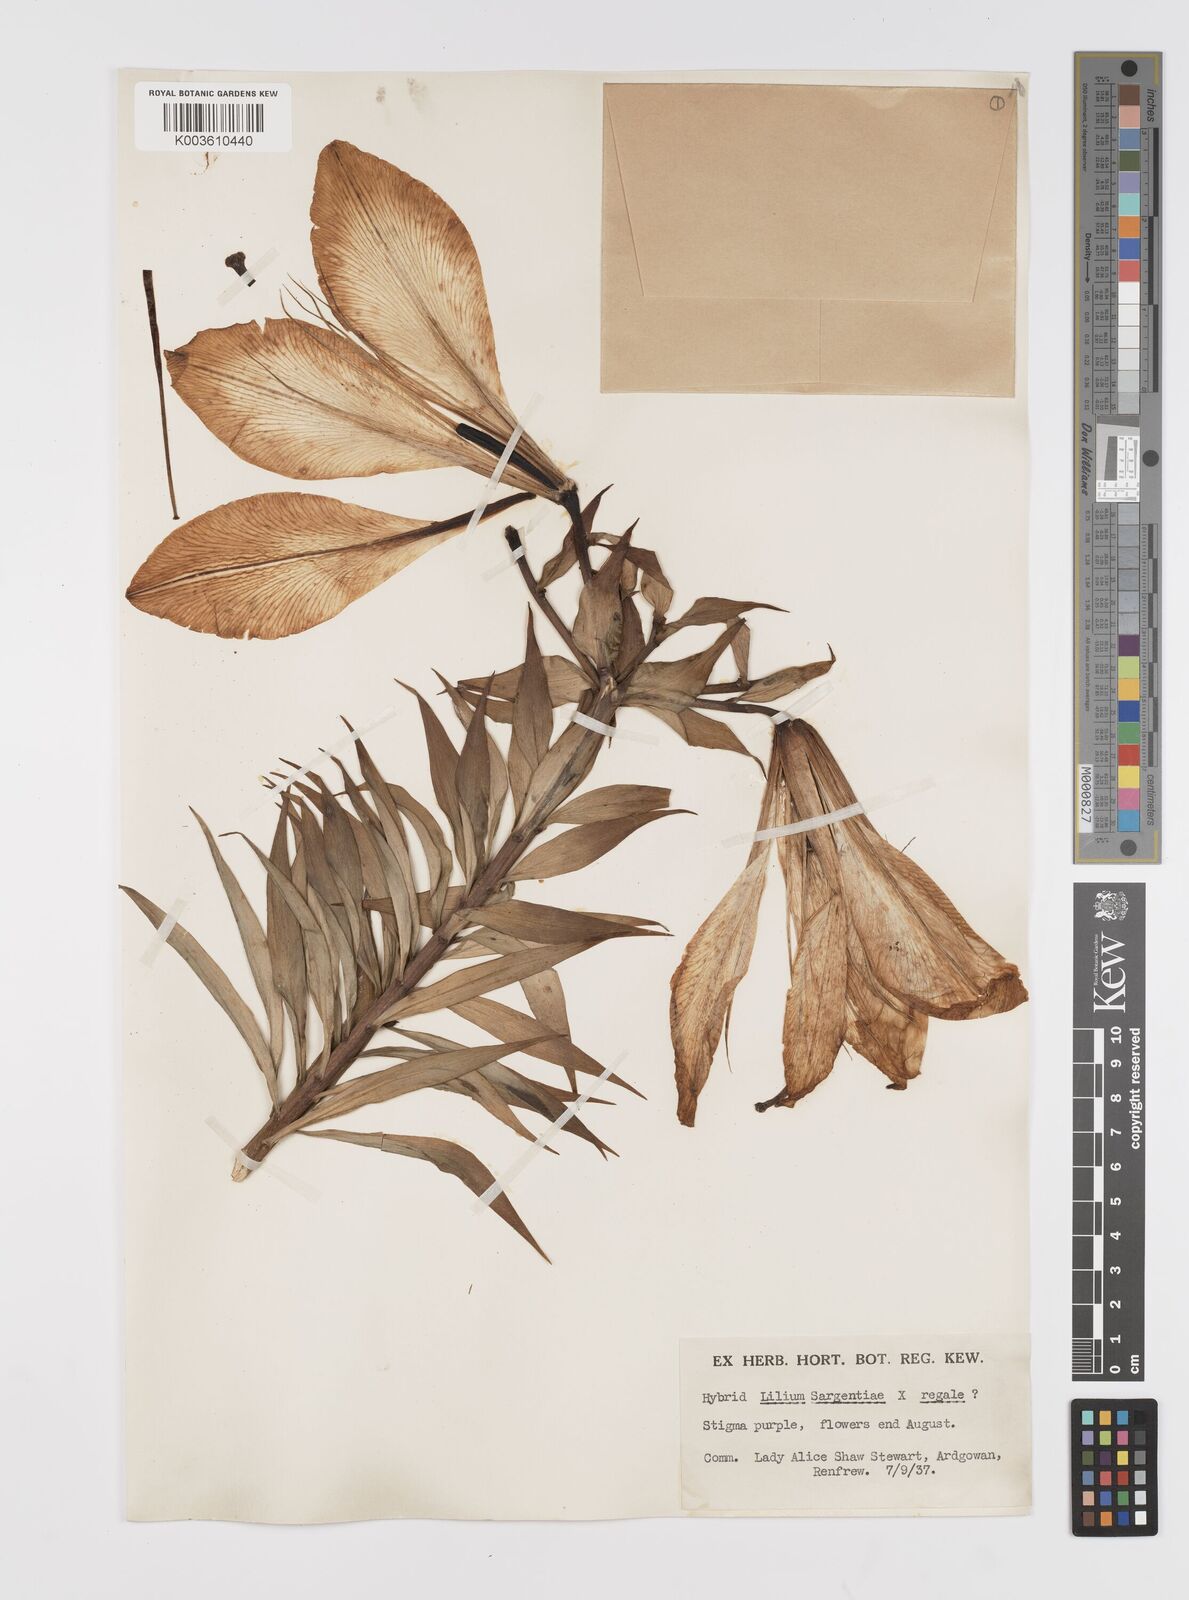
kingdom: Plantae
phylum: Tracheophyta
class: Liliopsida
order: Liliales
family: Liliaceae
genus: Lilium
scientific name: Lilium sargentiae
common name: Sargent lily
